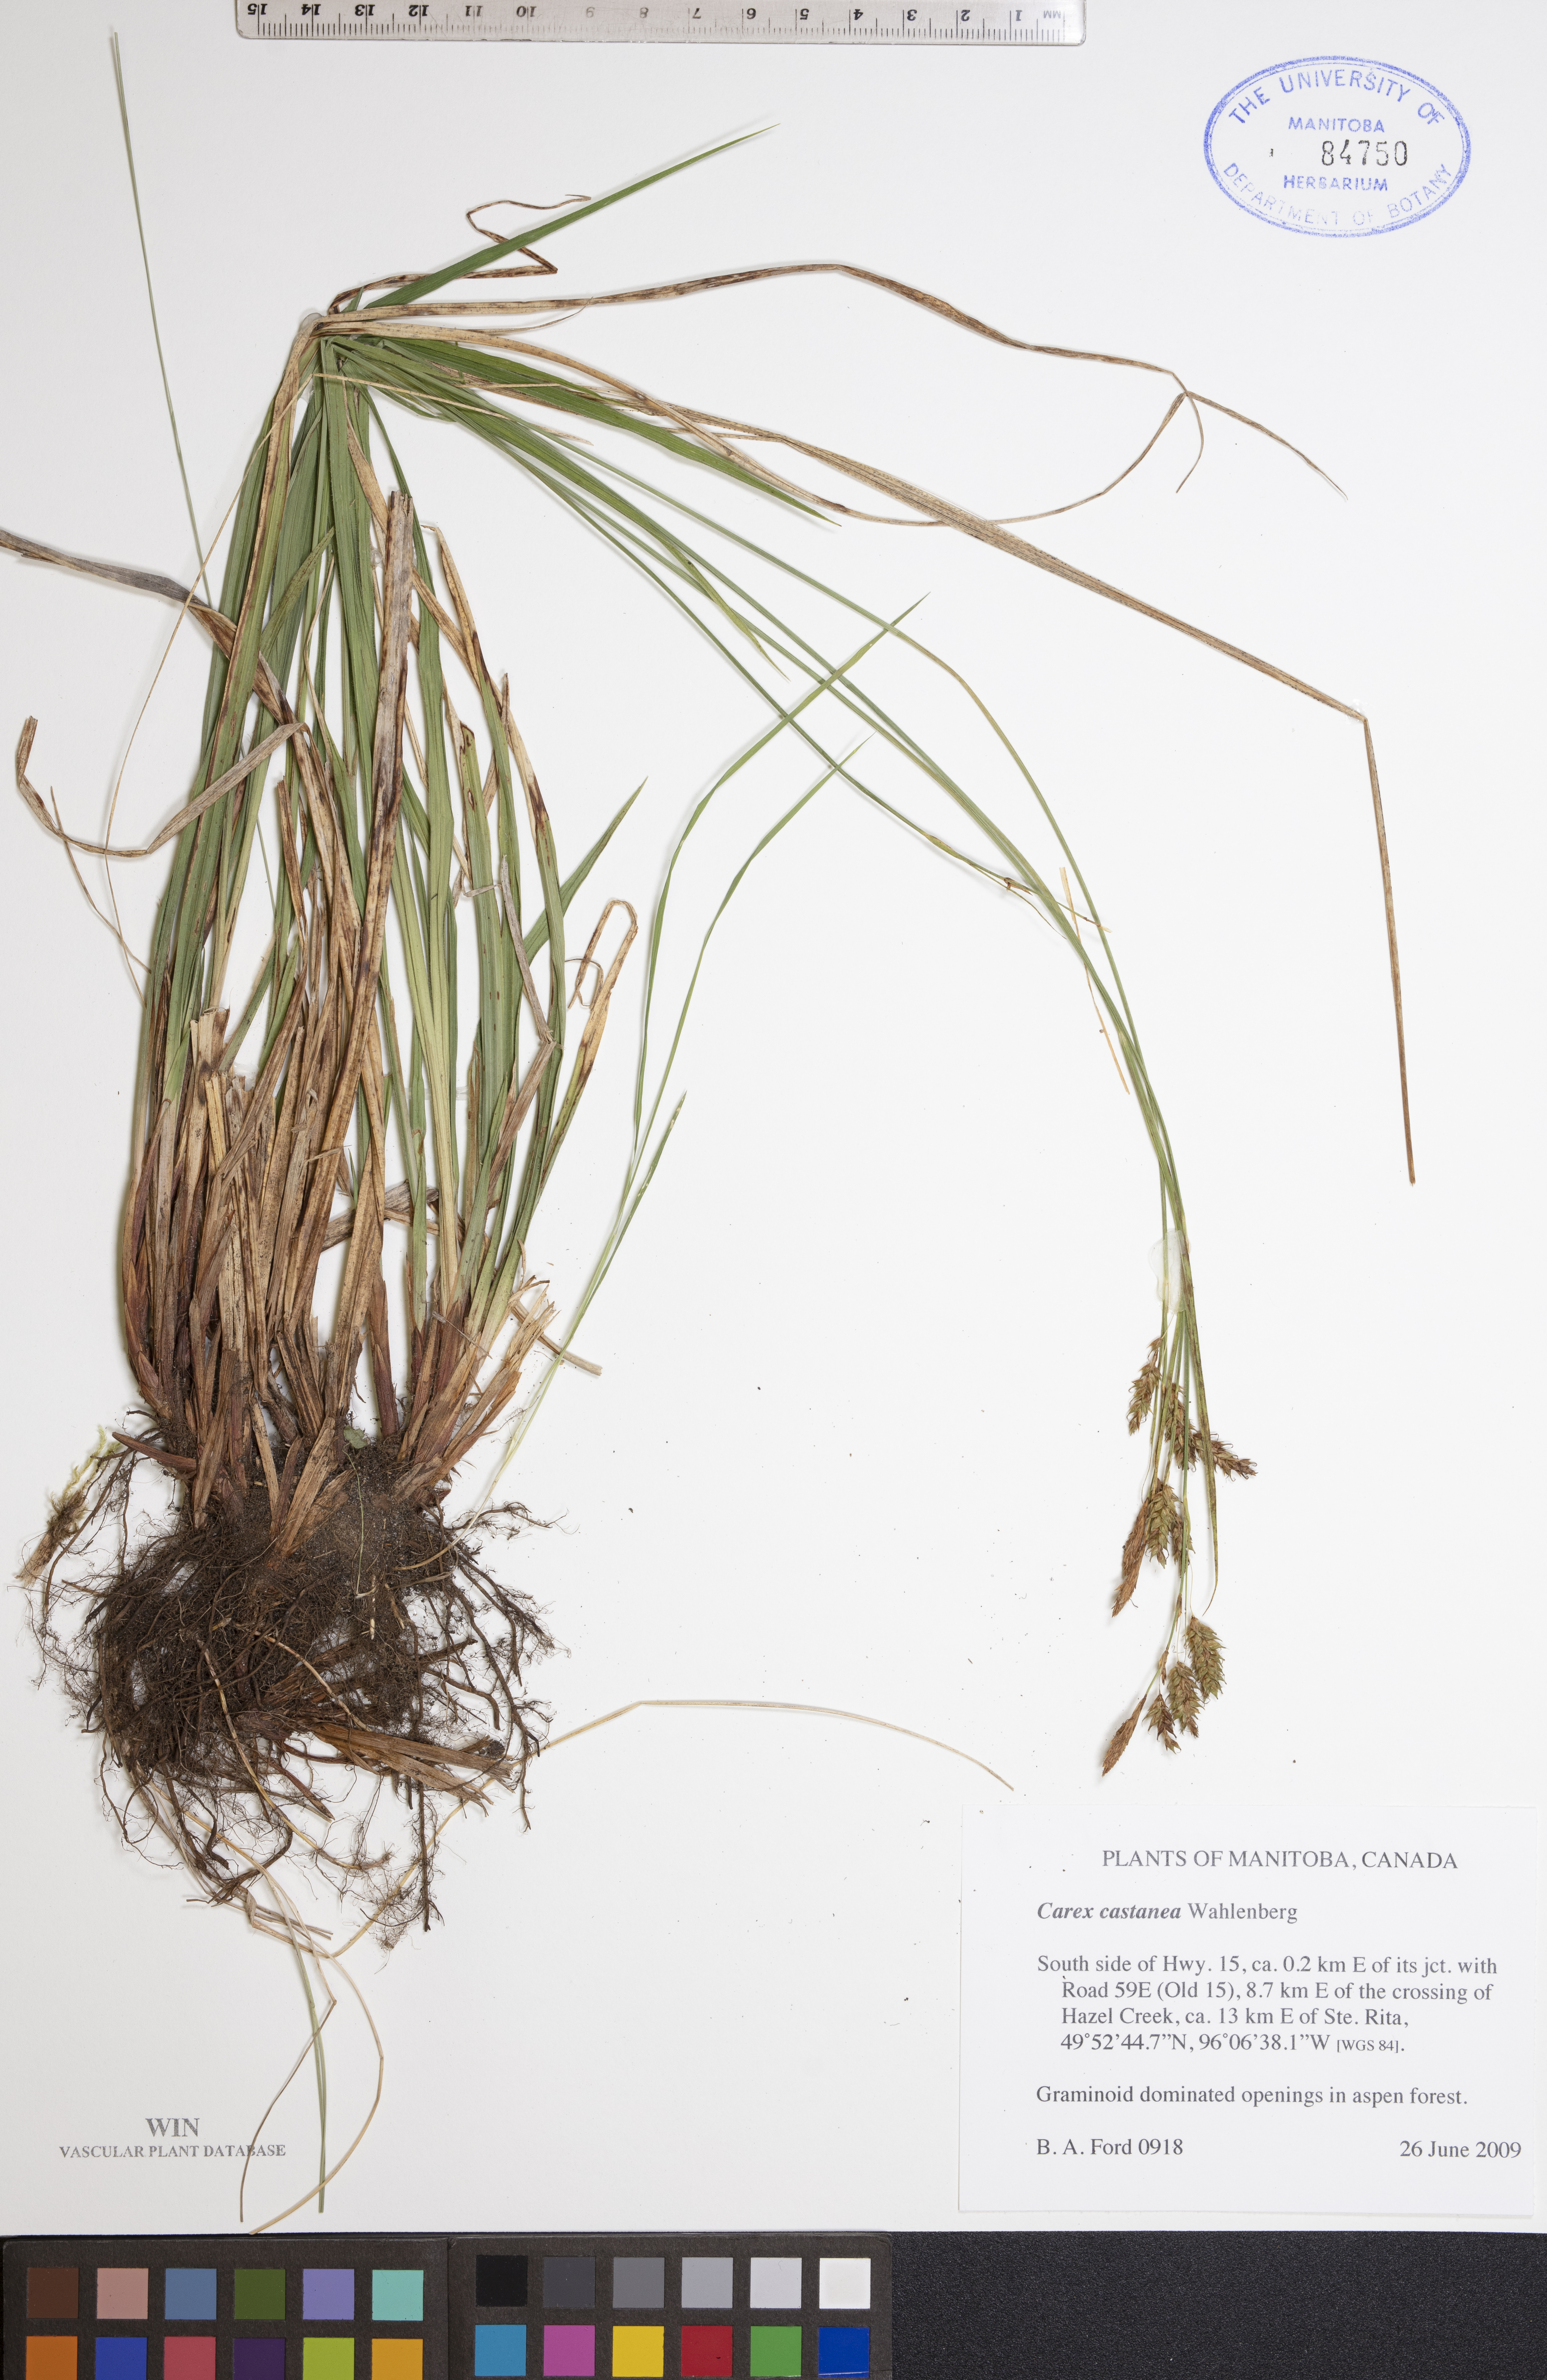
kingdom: Plantae
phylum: Tracheophyta
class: Liliopsida
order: Poales
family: Cyperaceae
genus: Carex
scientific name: Carex castanea
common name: Chestnut sedge
